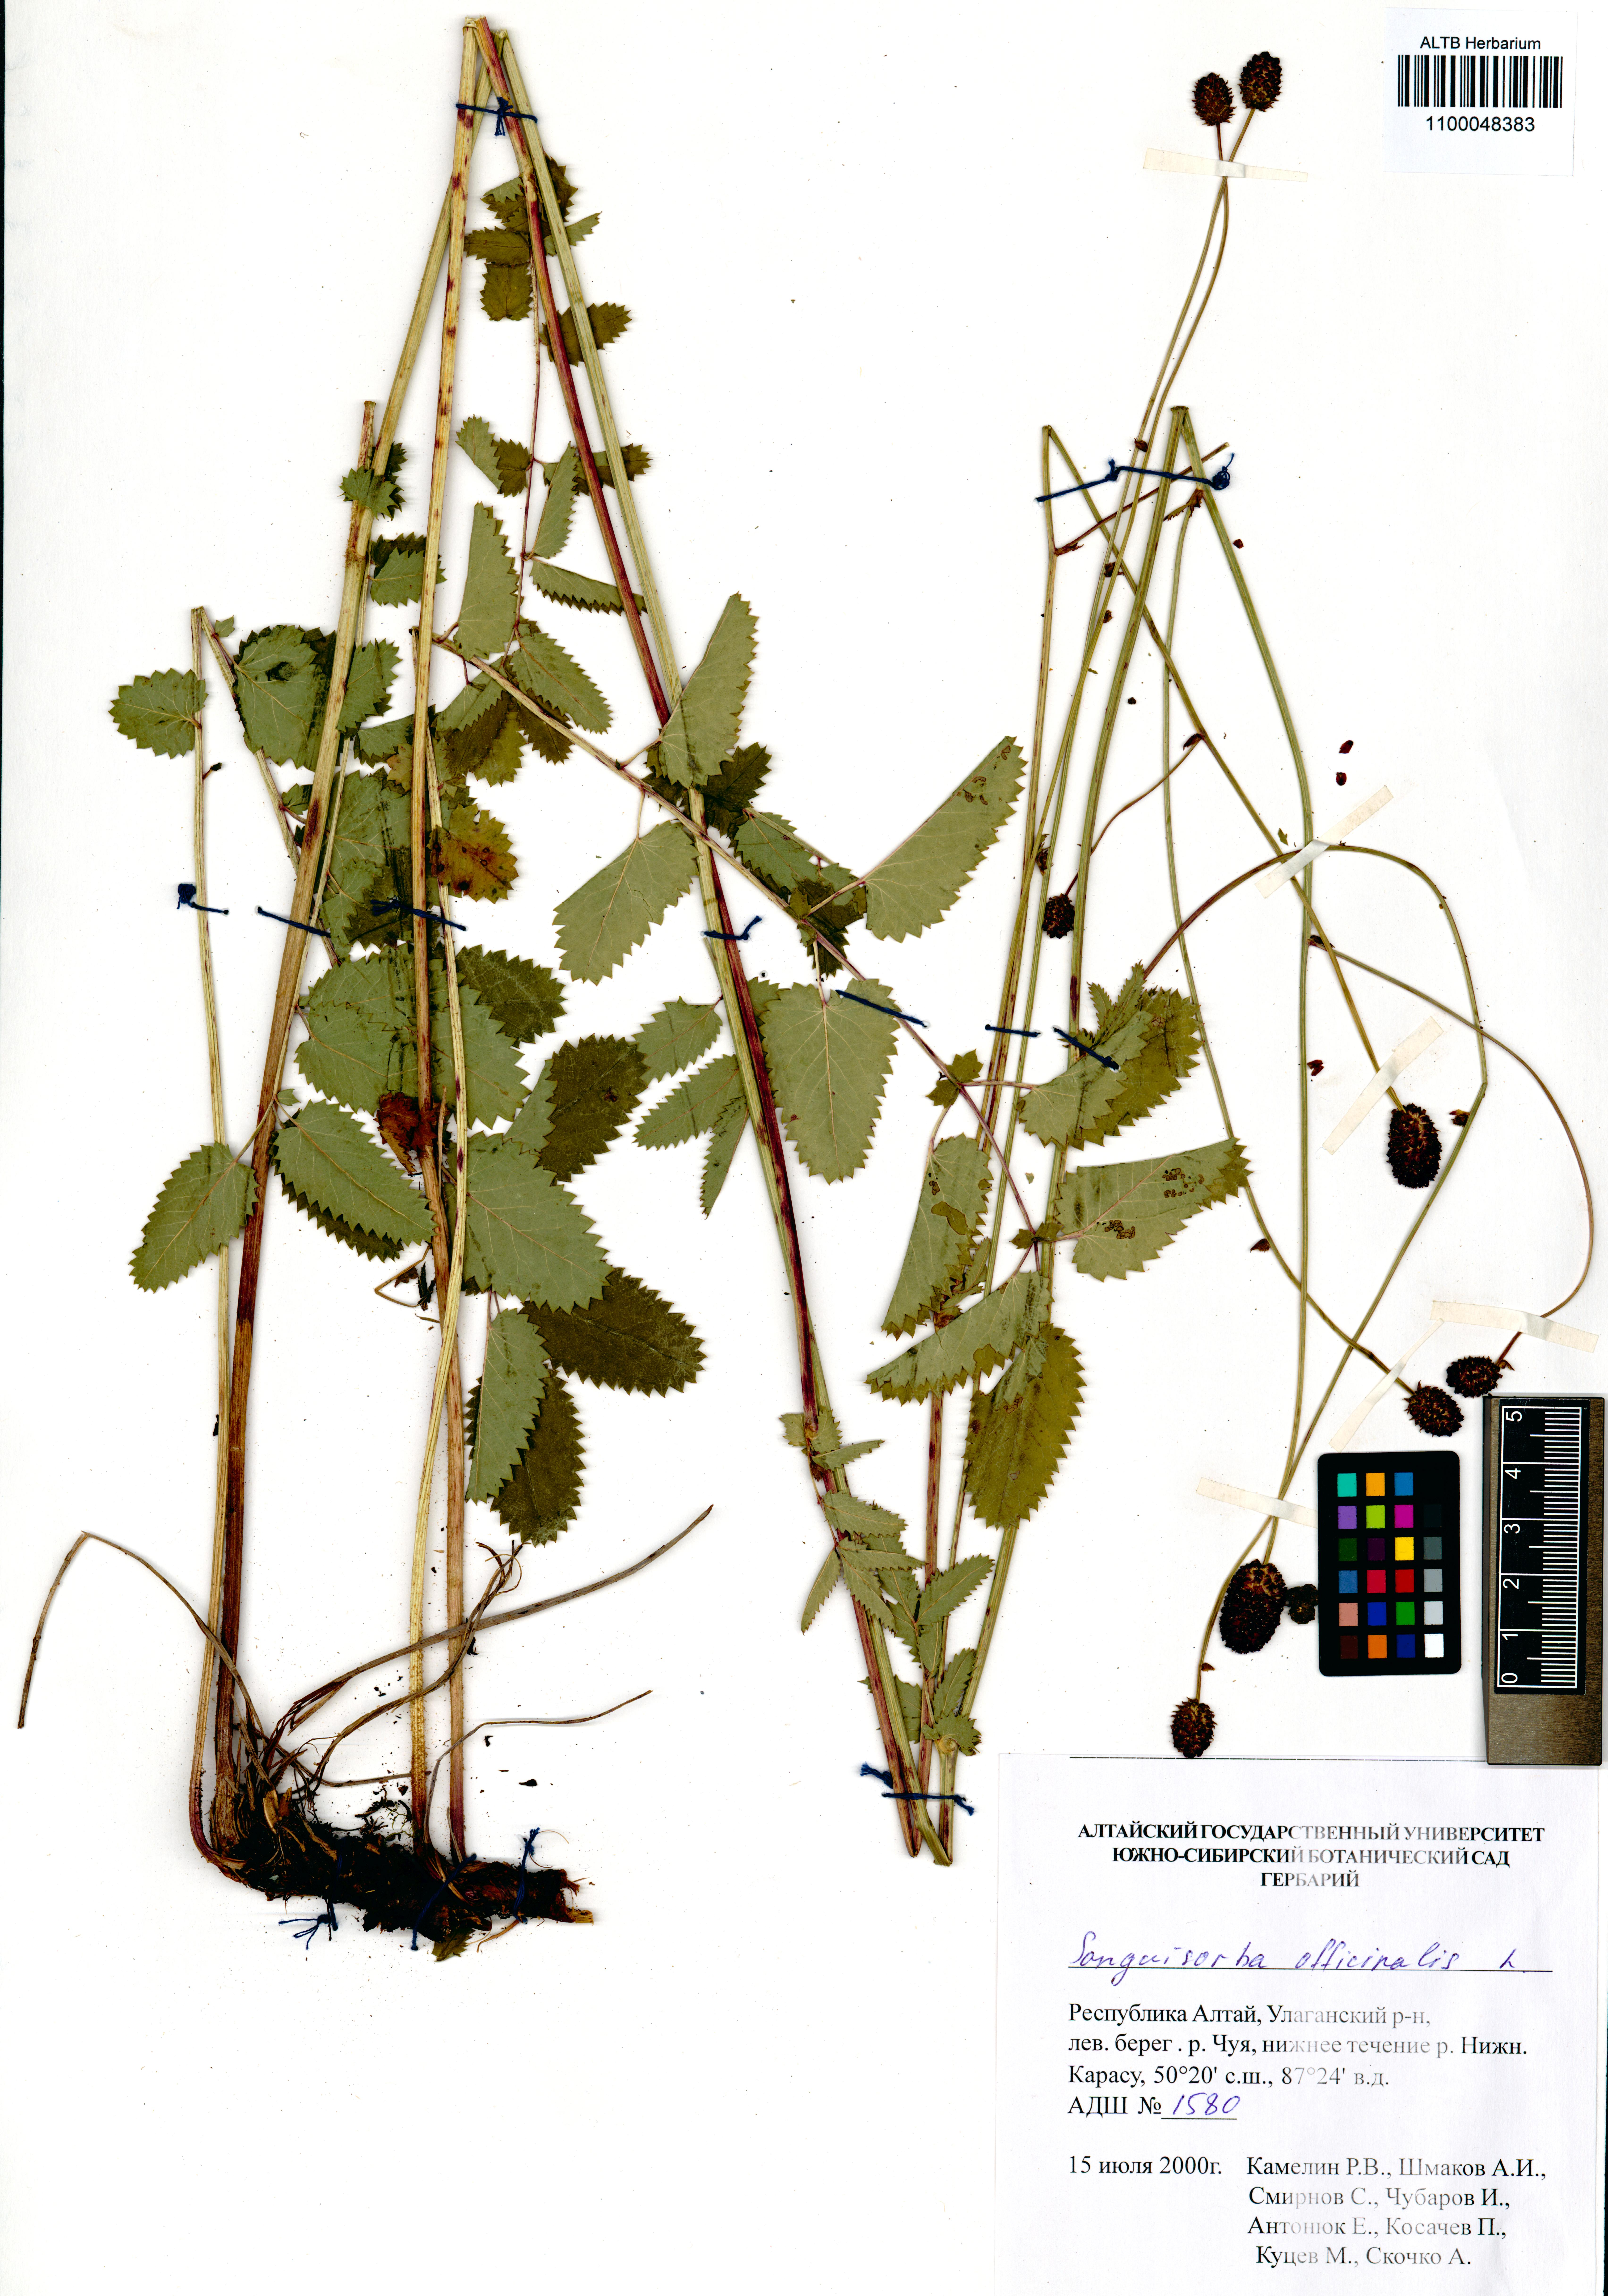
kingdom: Plantae
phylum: Tracheophyta
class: Magnoliopsida
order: Rosales
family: Rosaceae
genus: Sanguisorba
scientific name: Sanguisorba officinalis
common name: Great burnet
